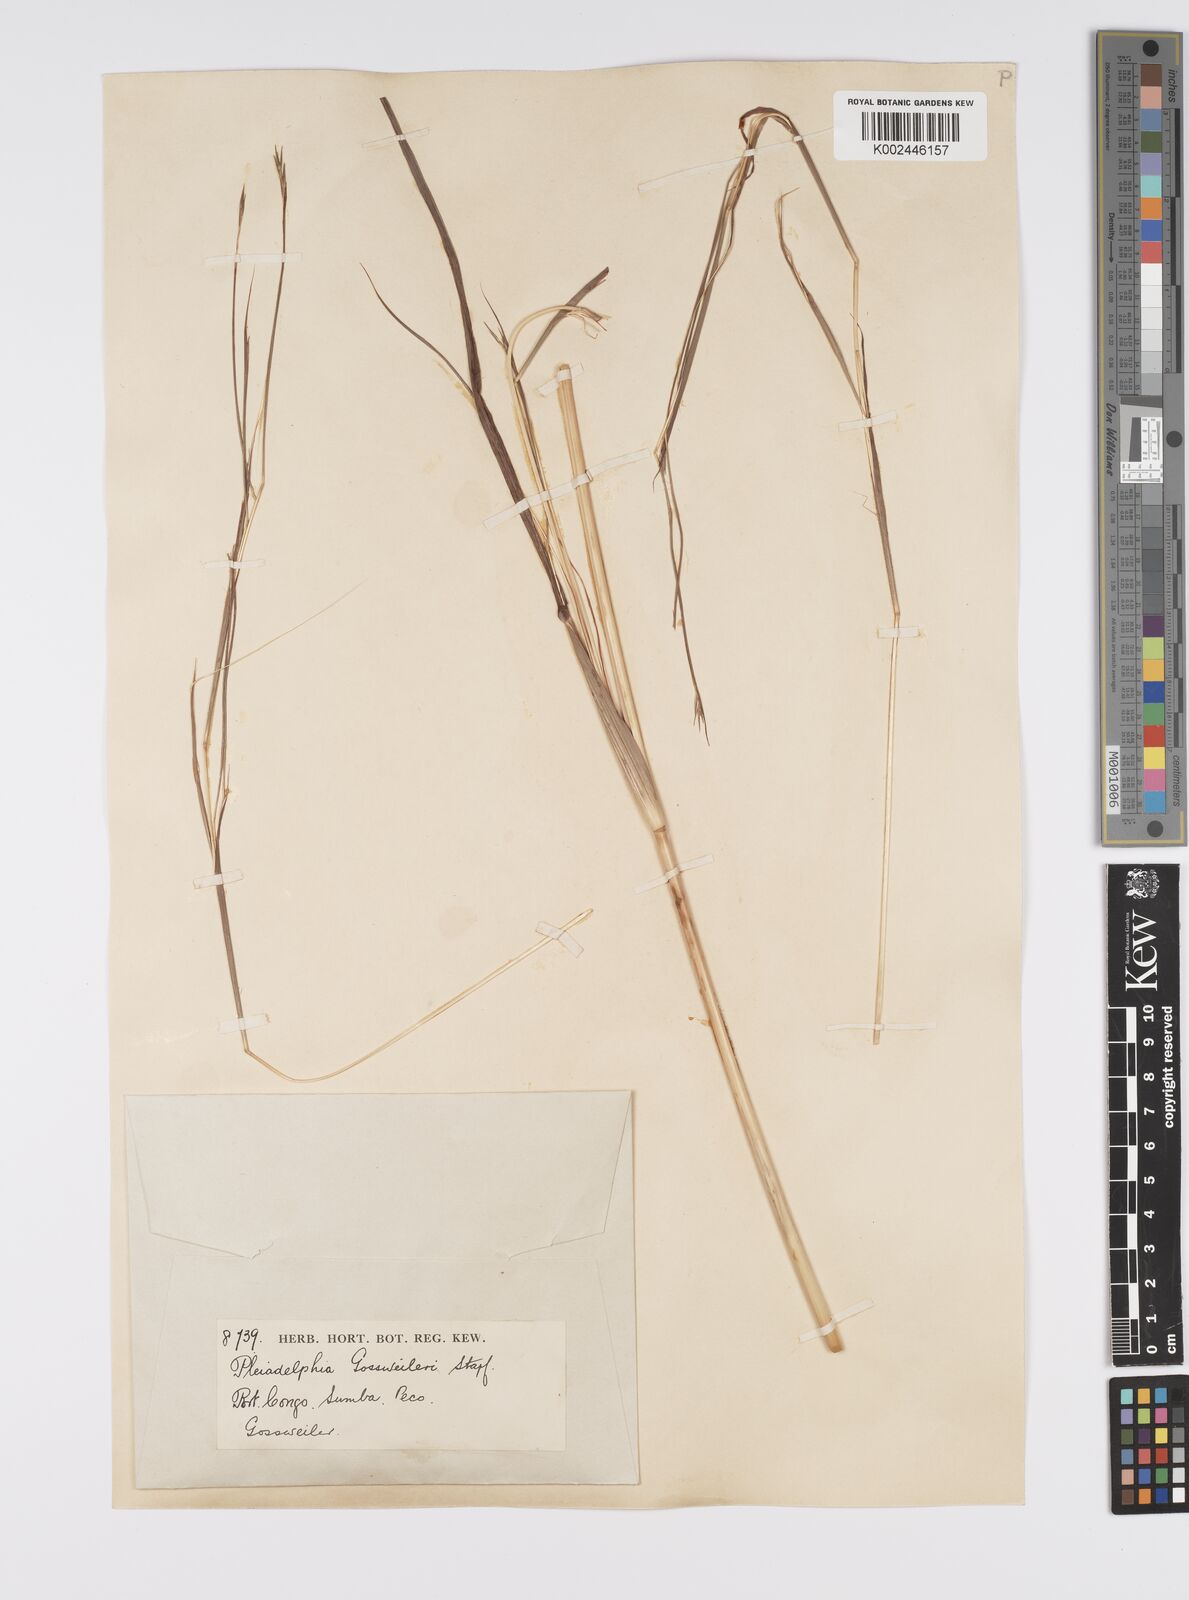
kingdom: Plantae
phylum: Tracheophyta
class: Liliopsida
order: Poales
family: Poaceae
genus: Elymandra
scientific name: Elymandra gossweileri
